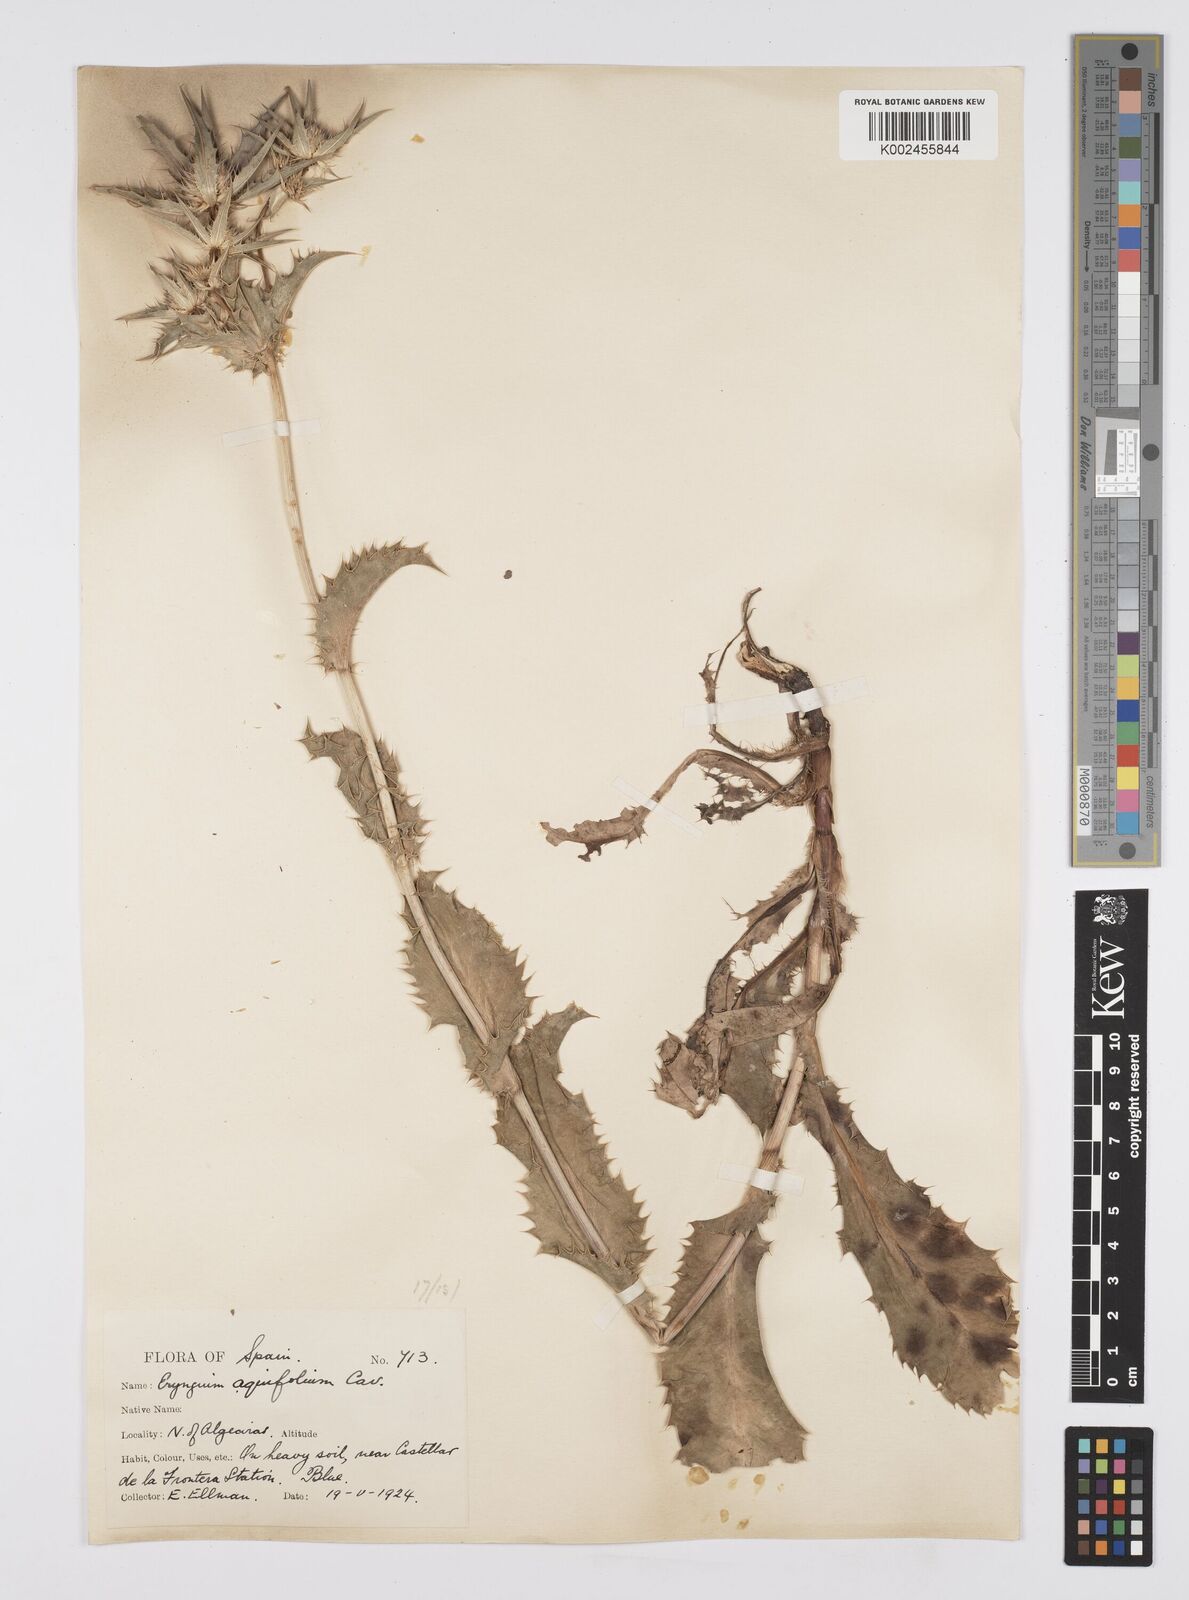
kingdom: Plantae
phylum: Tracheophyta
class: Magnoliopsida
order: Apiales
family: Apiaceae
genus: Eryngium
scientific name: Eryngium aquifolium
